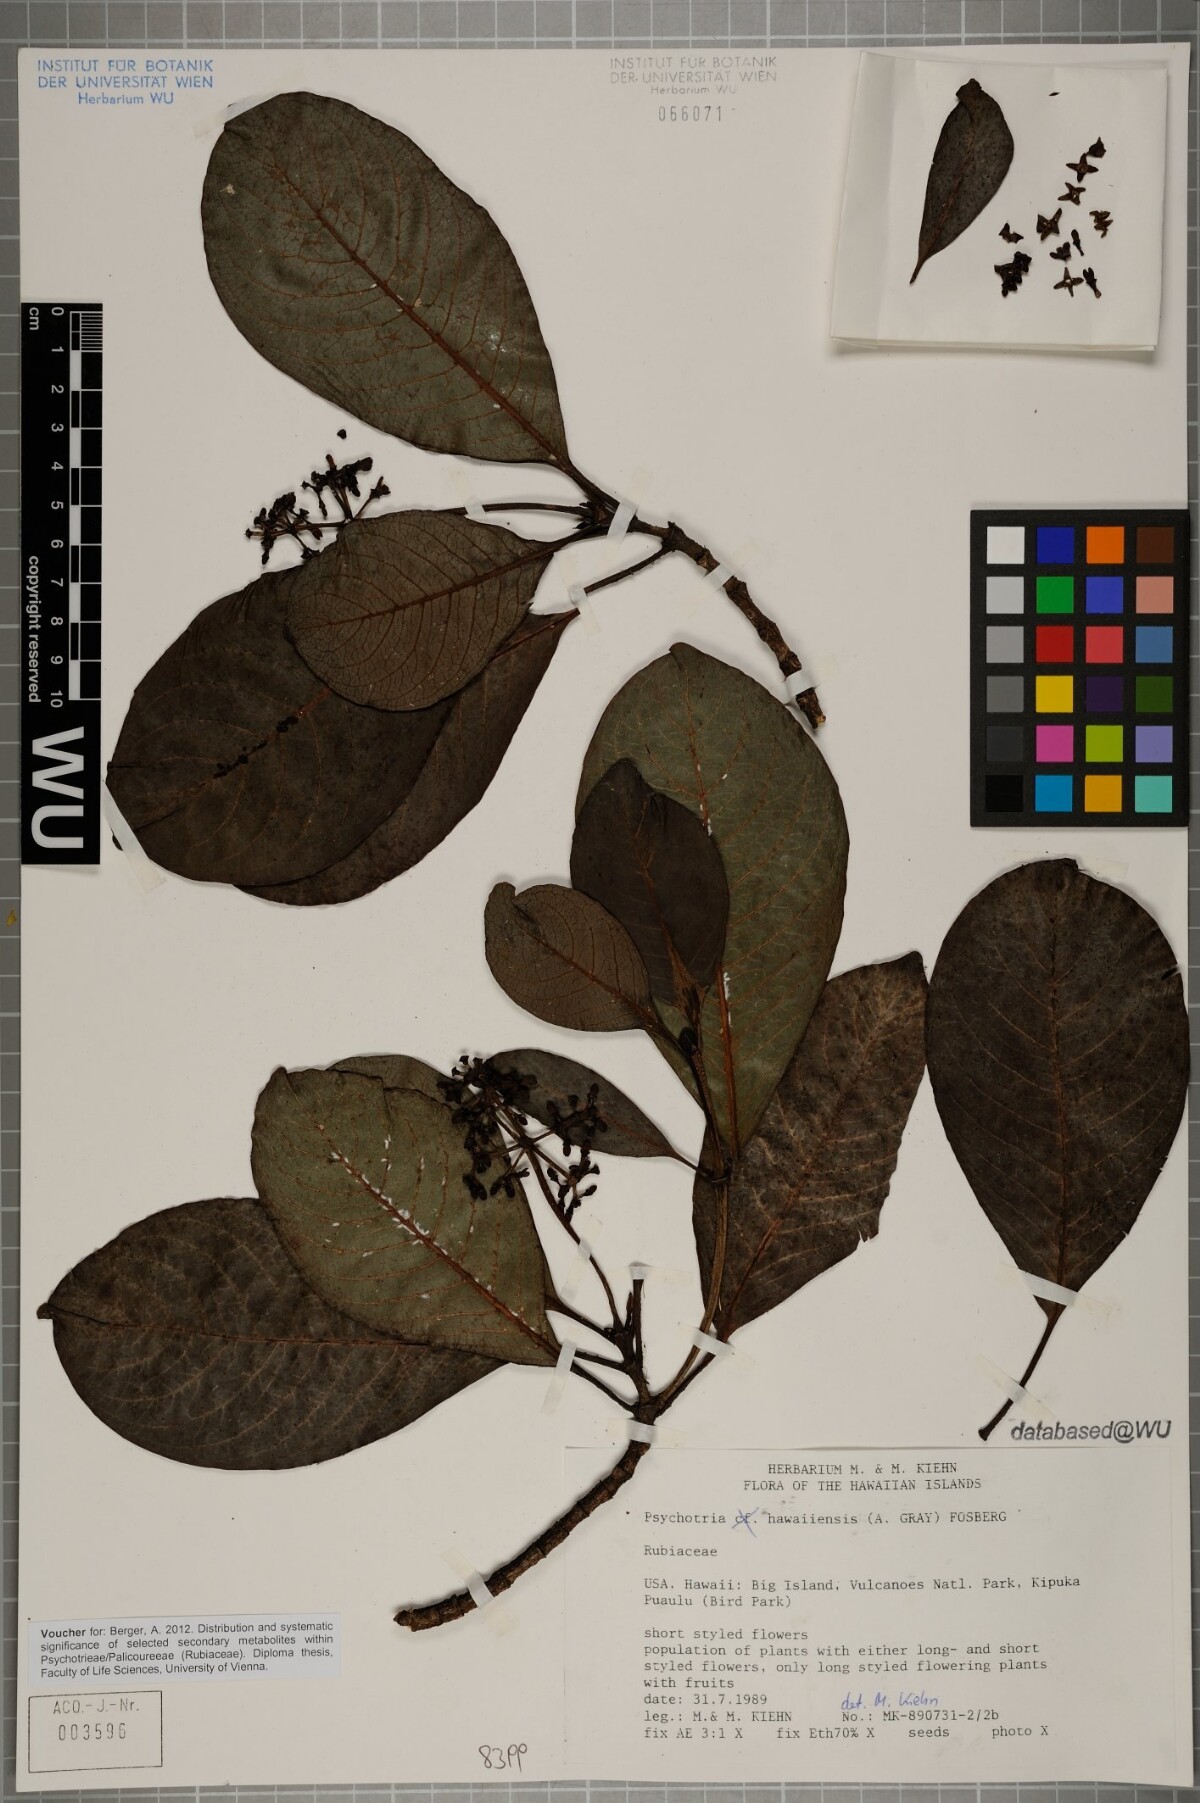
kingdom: Plantae
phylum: Tracheophyta
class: Magnoliopsida
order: Gentianales
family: Rubiaceae
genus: Psychotria
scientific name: Psychotria hawaiiensis
